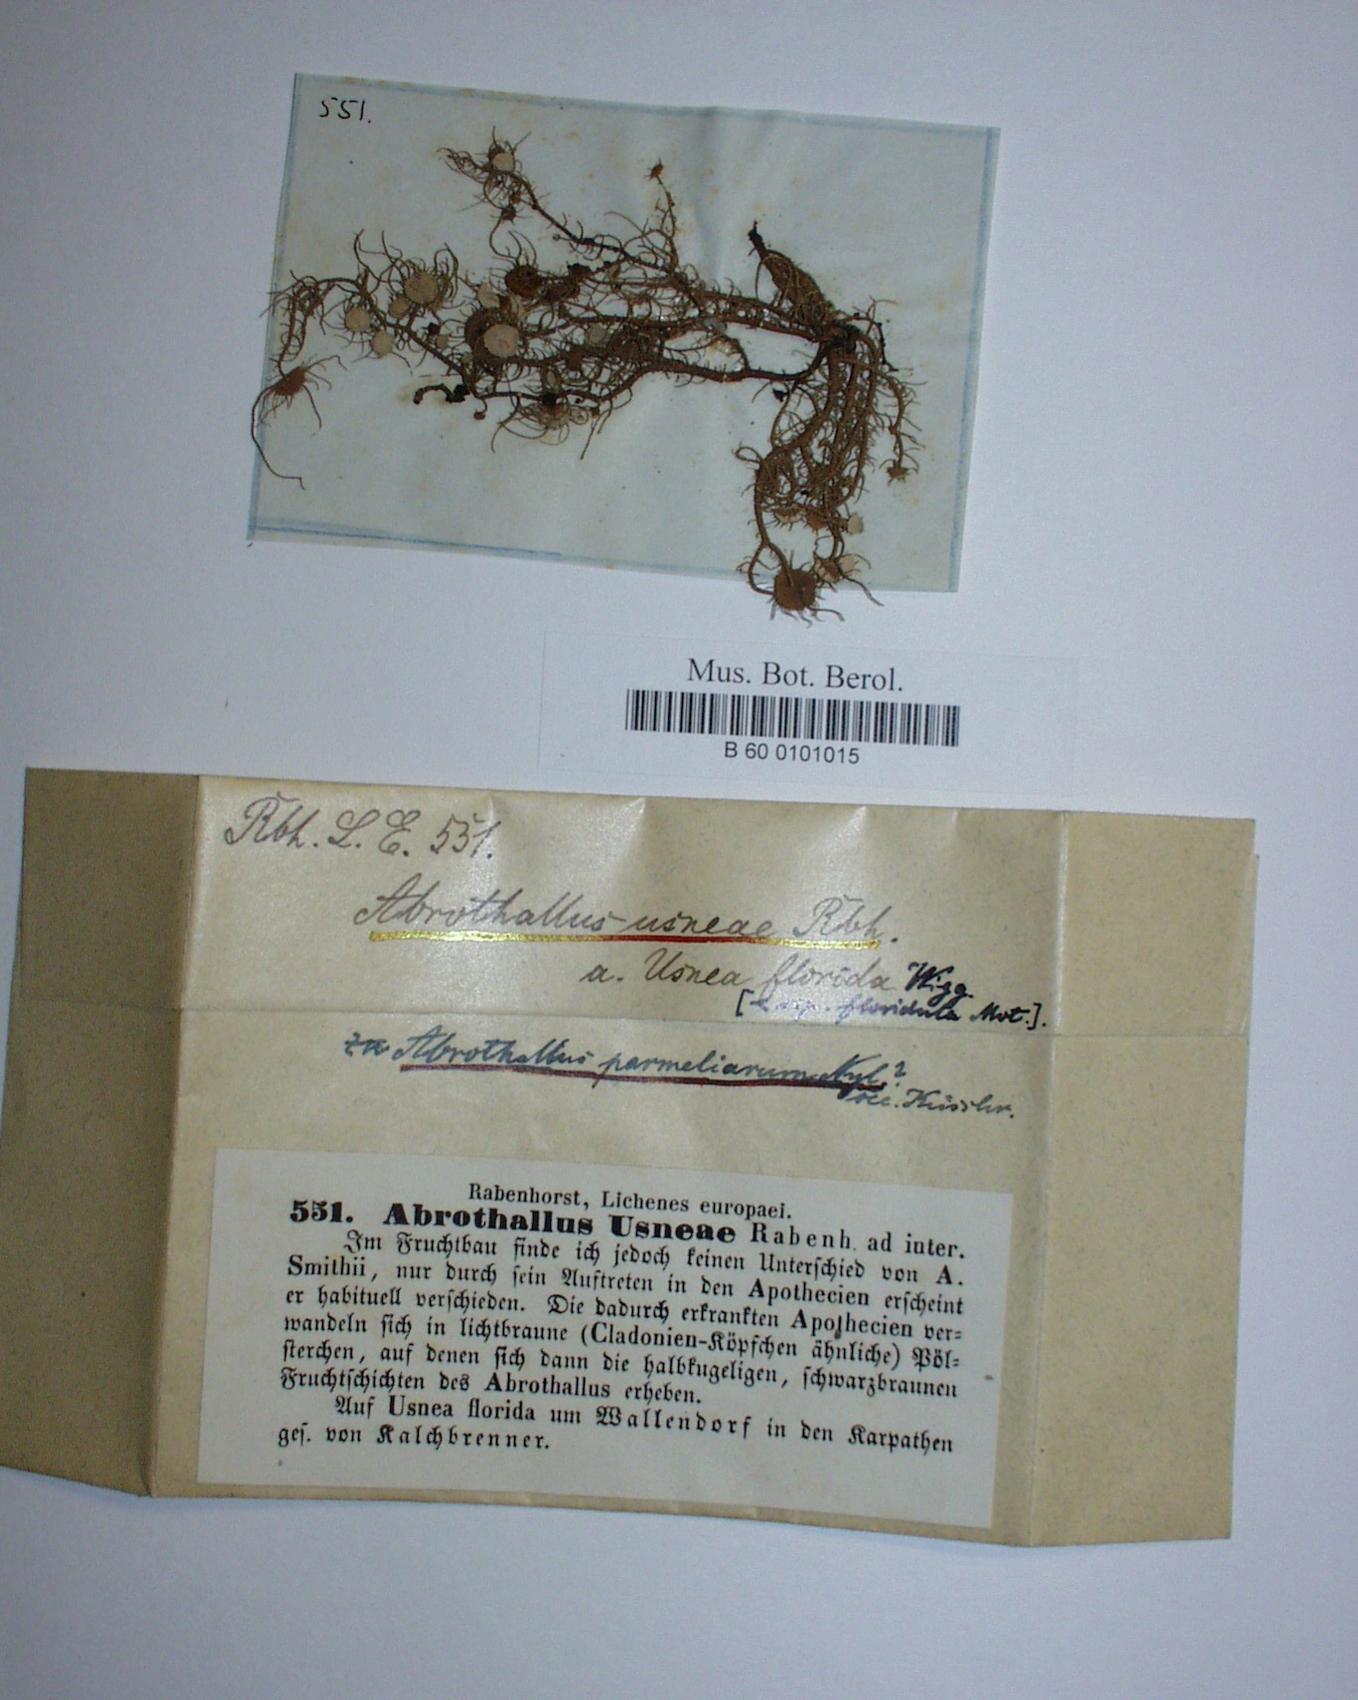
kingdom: Fungi
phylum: Ascomycota
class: Dothideomycetes
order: Abrothallales
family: Abrothallaceae
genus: Abrothallus
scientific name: Abrothallus usneae
